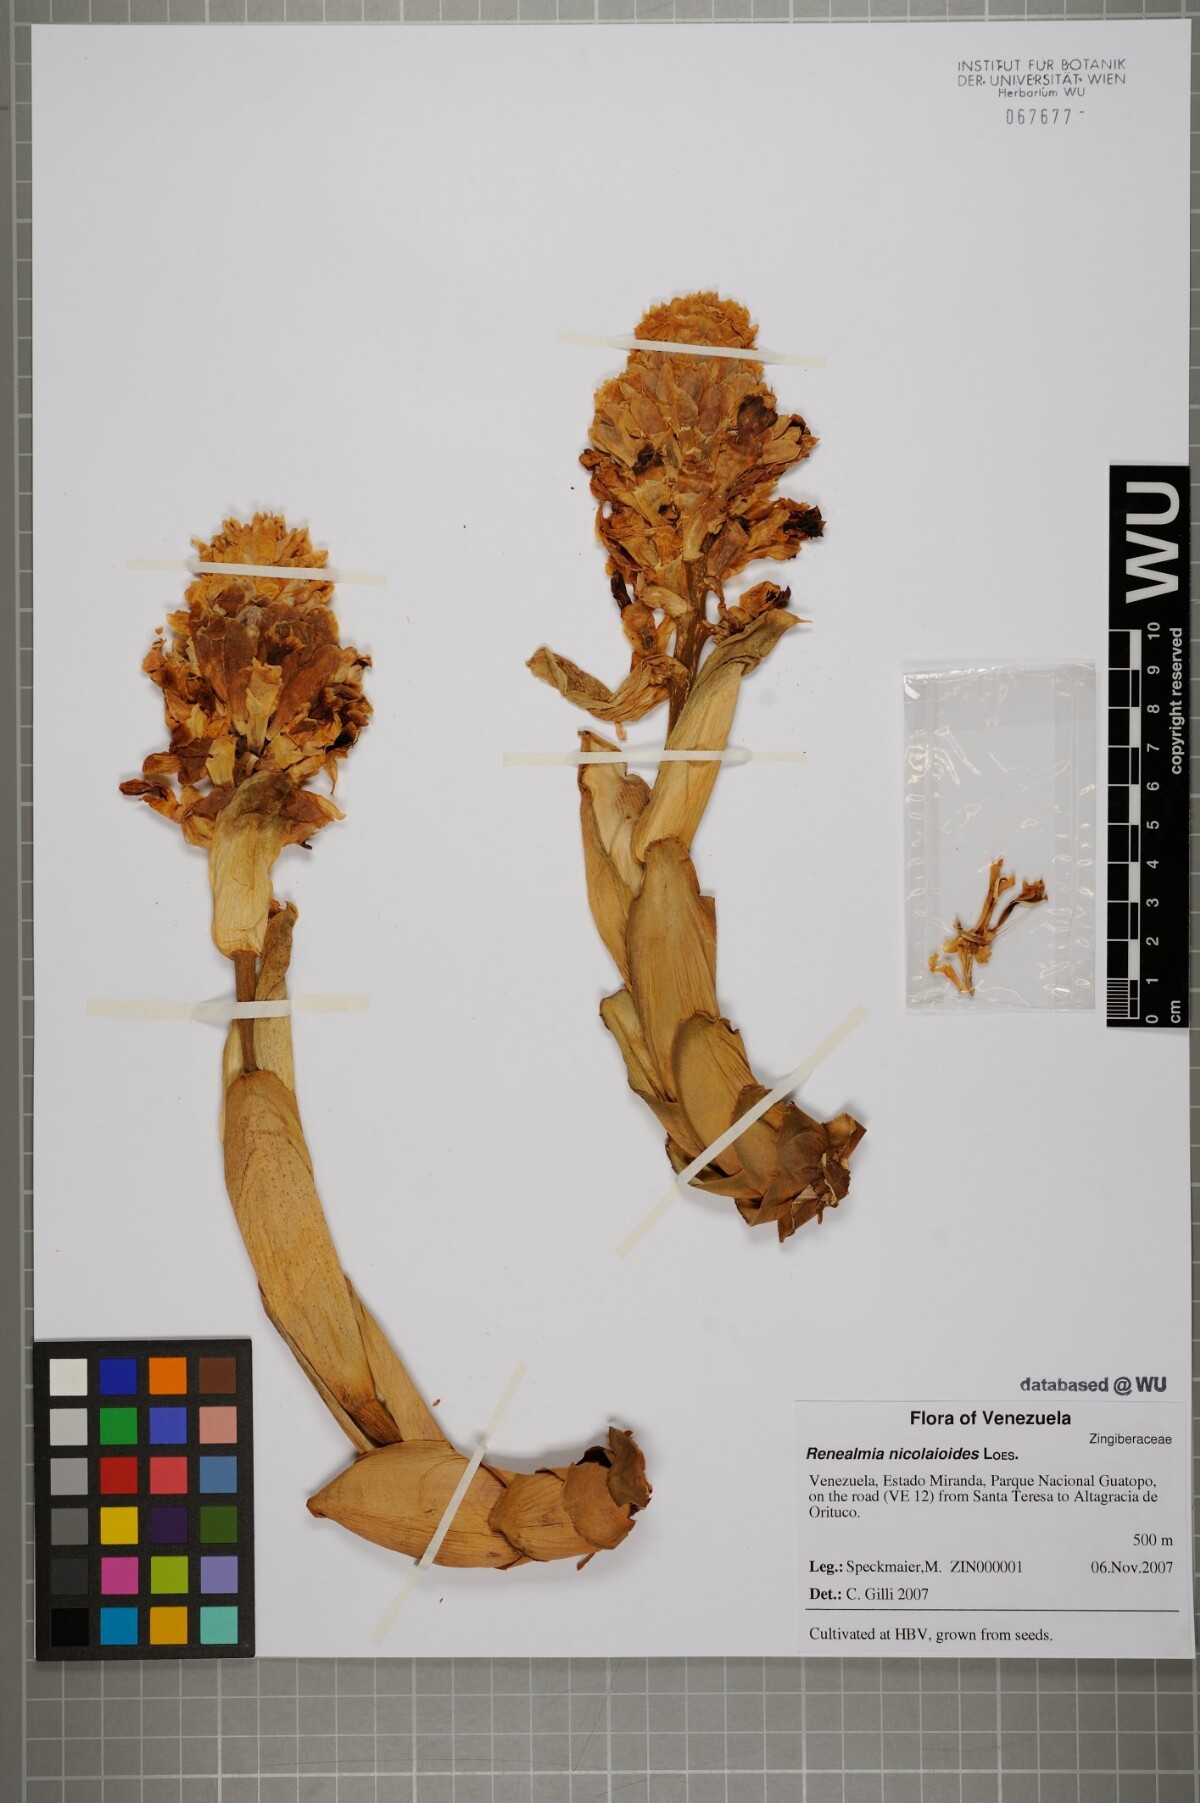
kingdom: Plantae
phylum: Tracheophyta
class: Liliopsida
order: Zingiberales
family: Zingiberaceae
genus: Renealmia
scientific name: Renealmia nicolaioides
